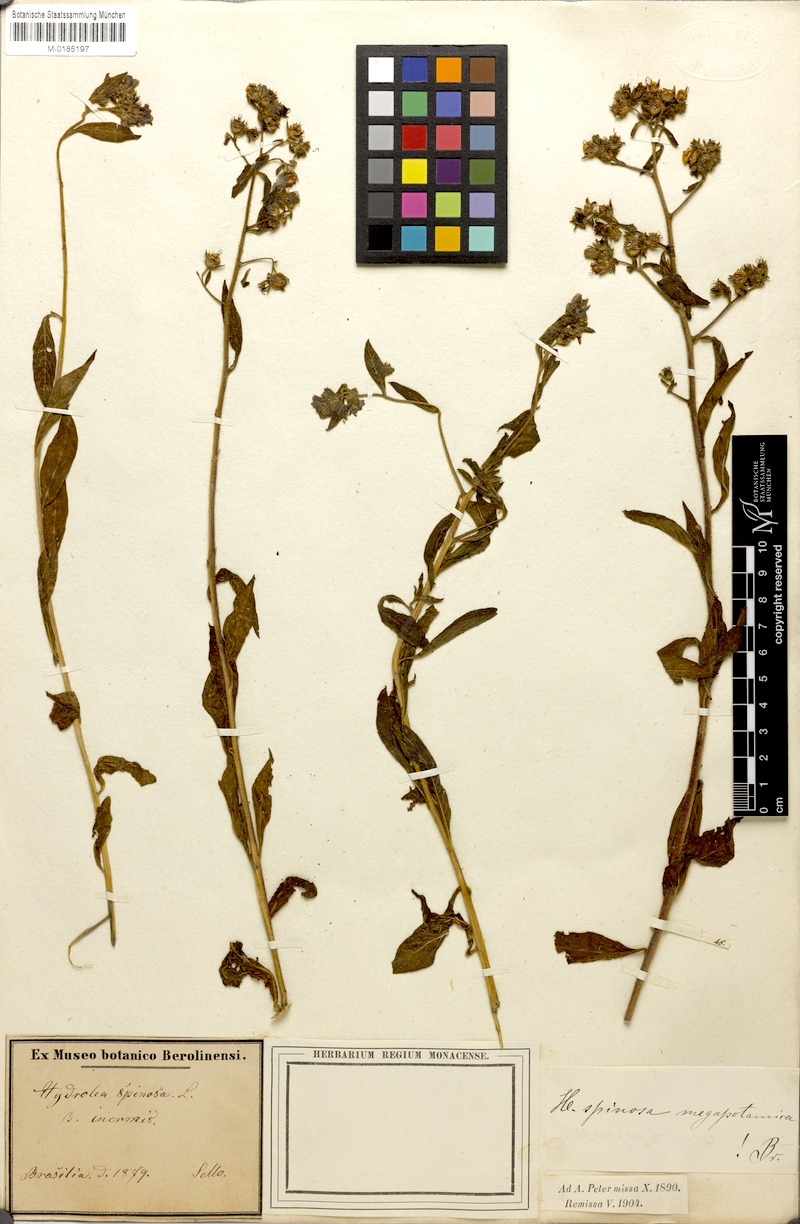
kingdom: Plantae
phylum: Tracheophyta
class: Magnoliopsida
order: Solanales
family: Hydroleaceae
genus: Hydrolea
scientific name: Hydrolea spinosa
